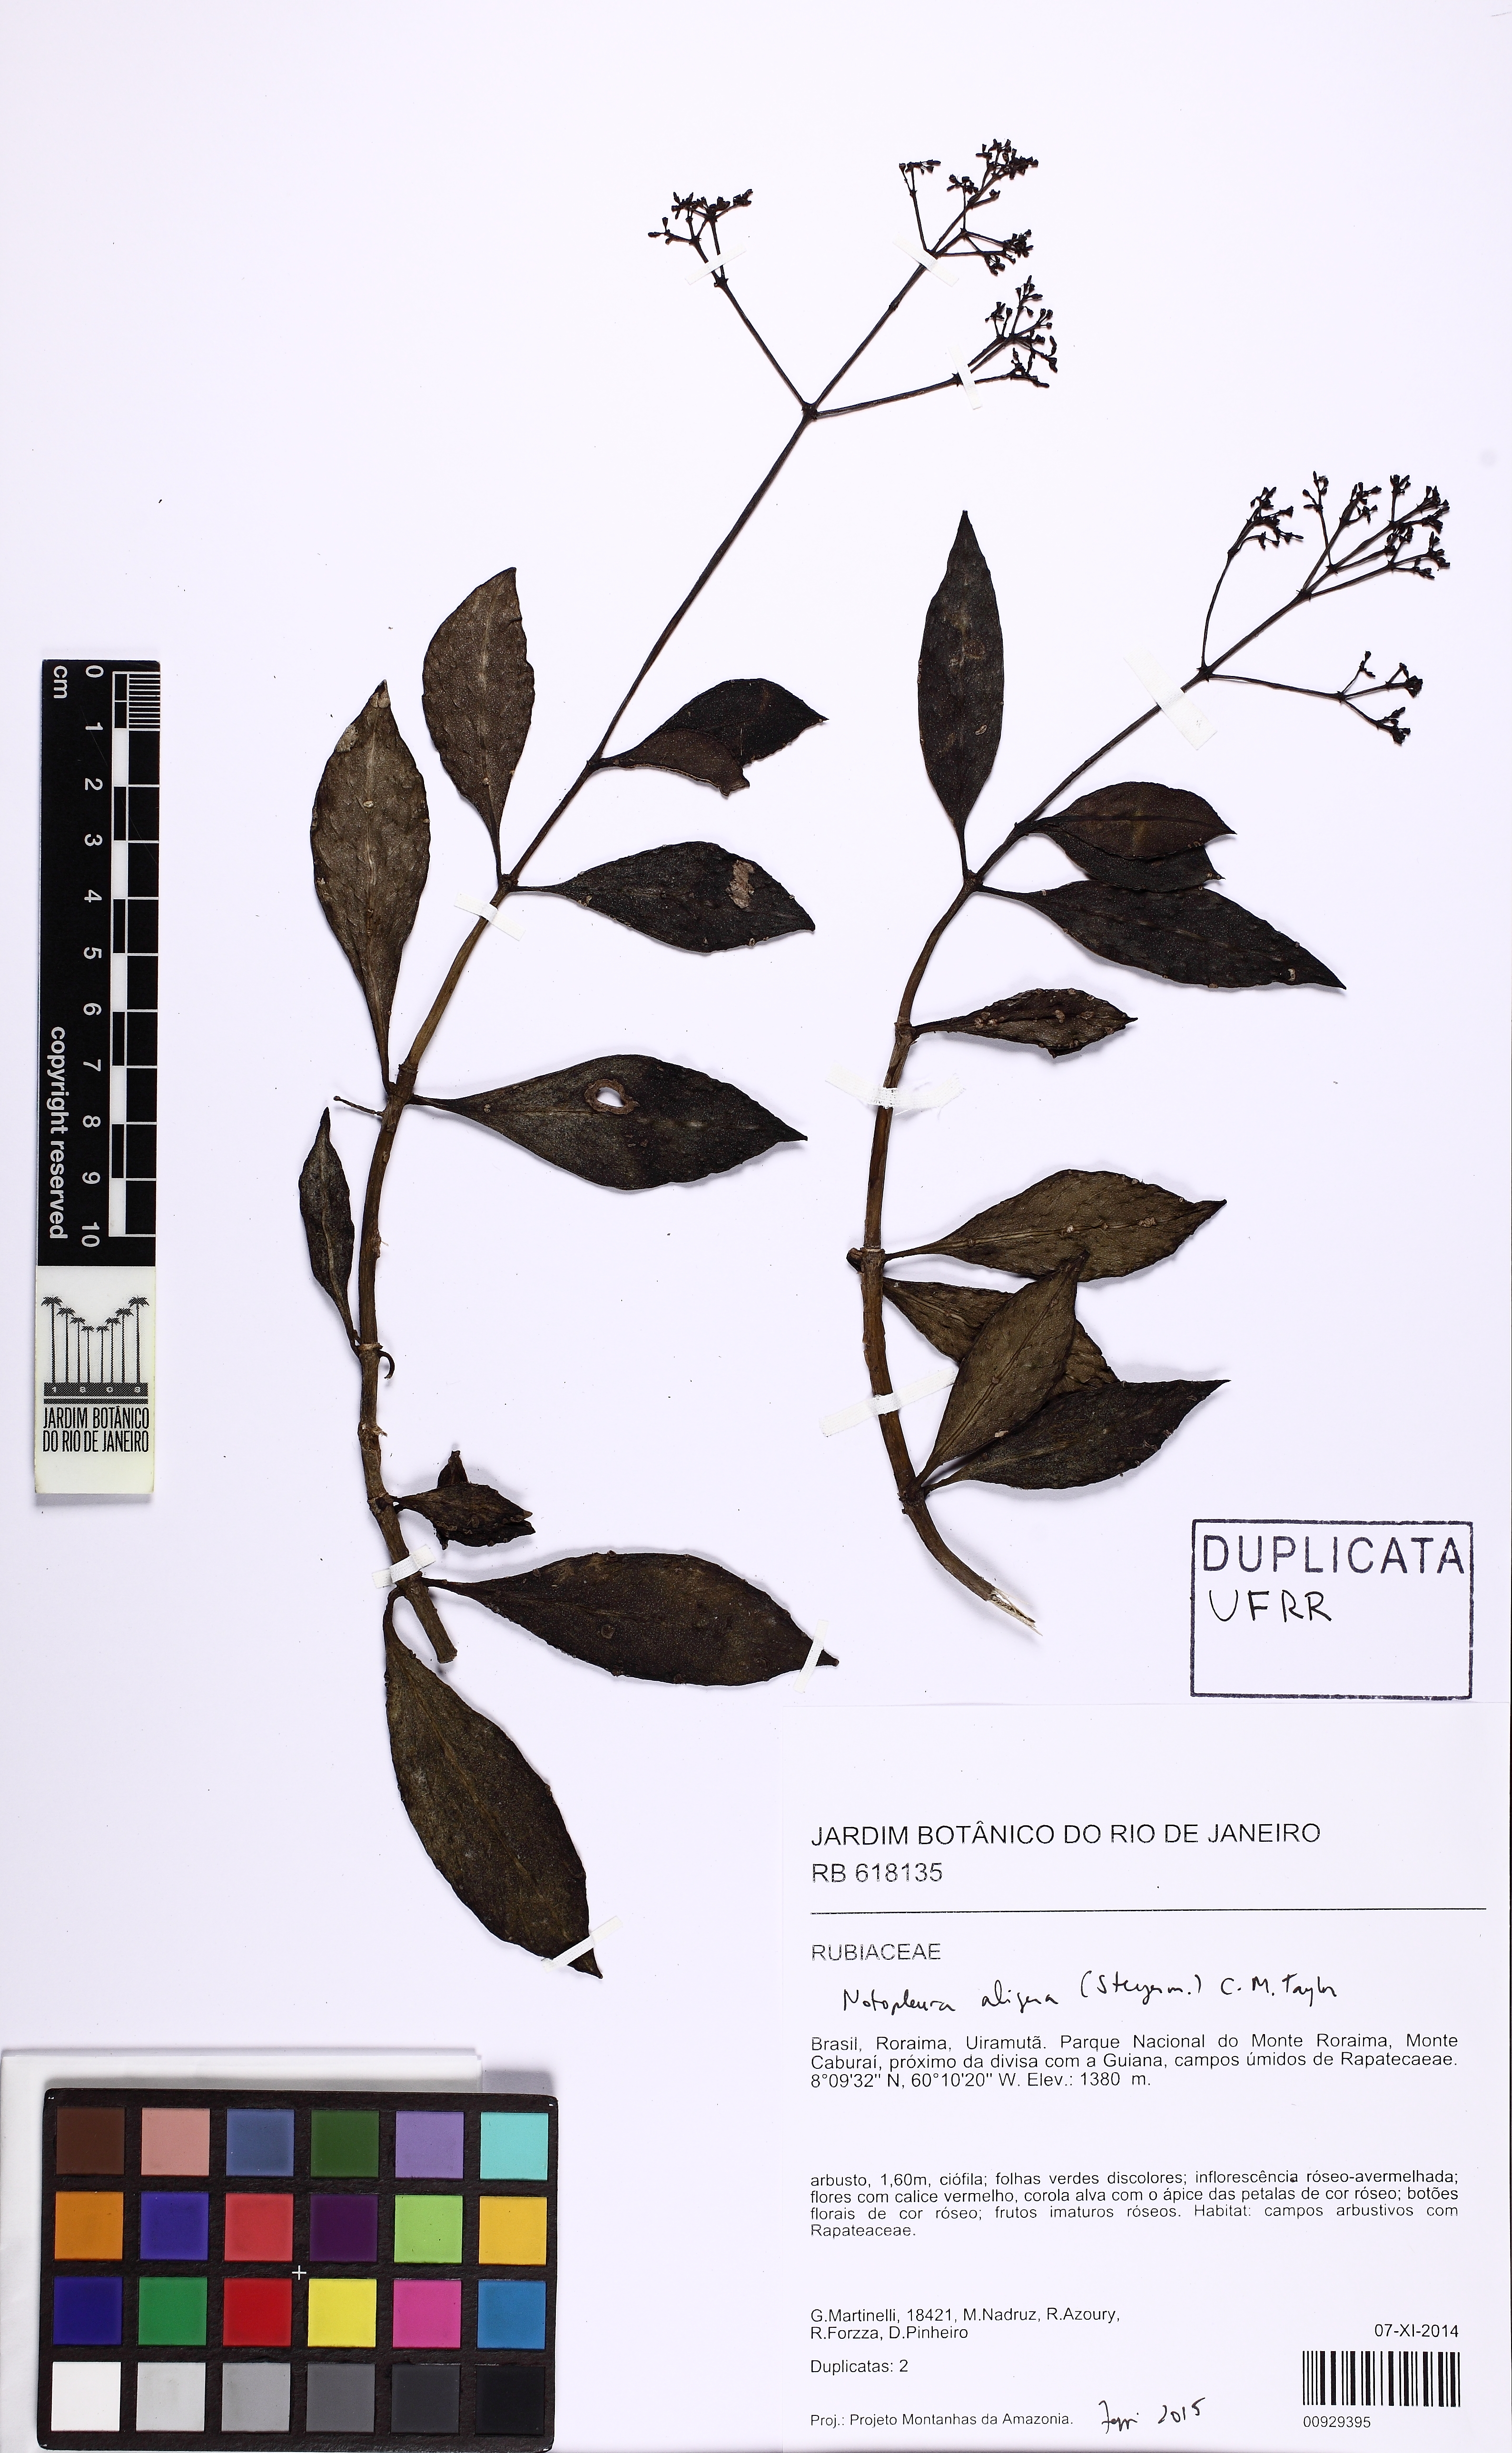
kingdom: Plantae
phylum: Tracheophyta
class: Magnoliopsida
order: Gentianales
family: Rubiaceae
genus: Notopleura
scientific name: Notopleura aligera
